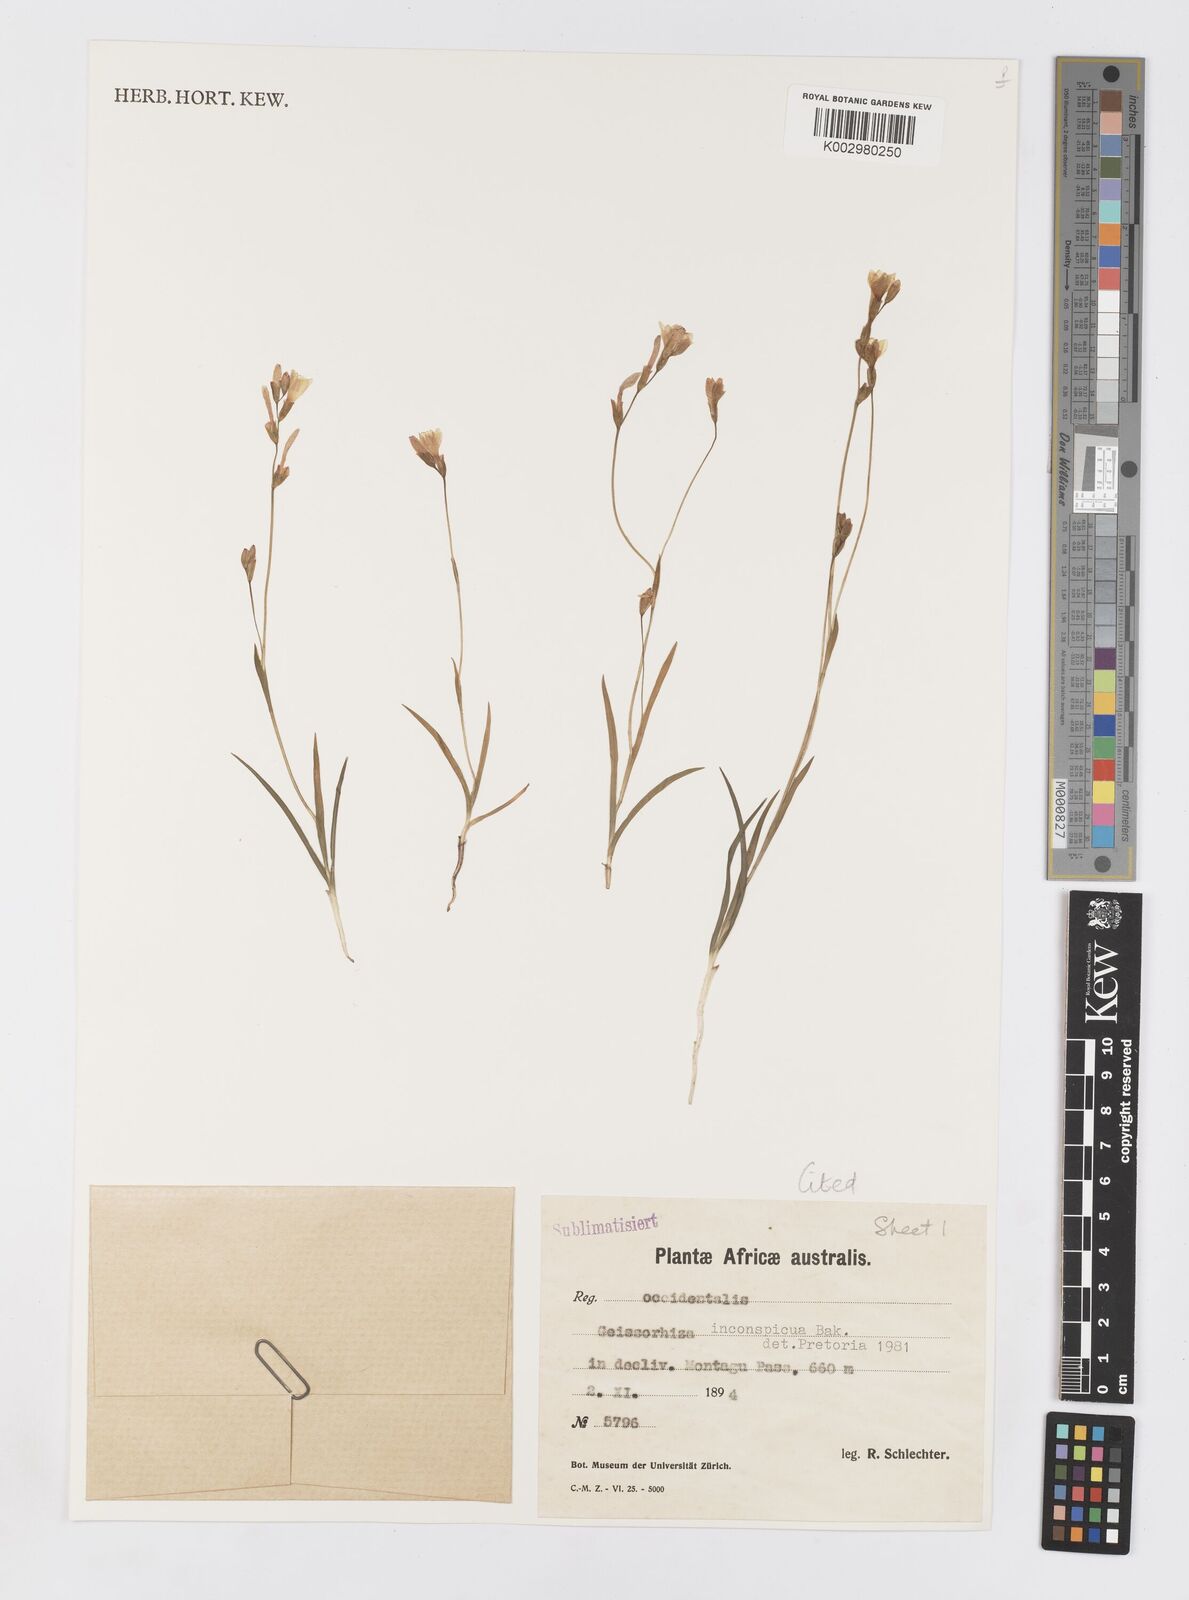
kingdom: Plantae
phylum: Tracheophyta
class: Liliopsida
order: Asparagales
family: Iridaceae
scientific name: Iridaceae
